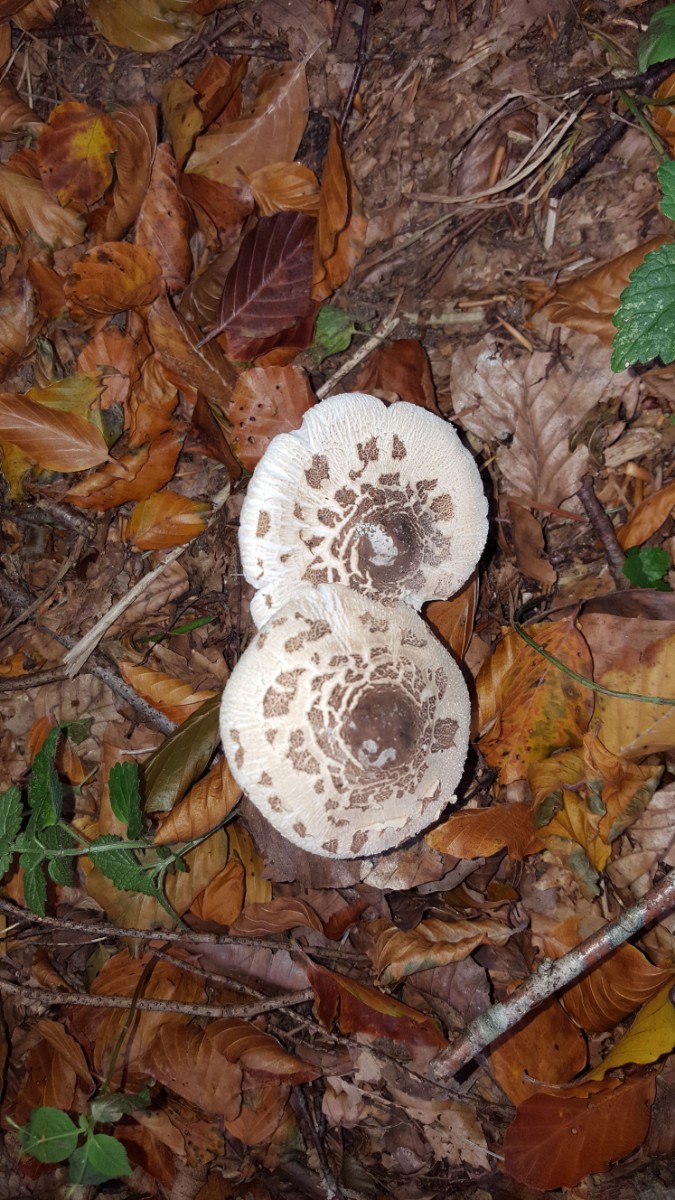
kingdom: Fungi
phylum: Basidiomycota
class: Agaricomycetes
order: Agaricales
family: Agaricaceae
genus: Macrolepiota
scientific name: Macrolepiota
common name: kæmpeparasolhat
